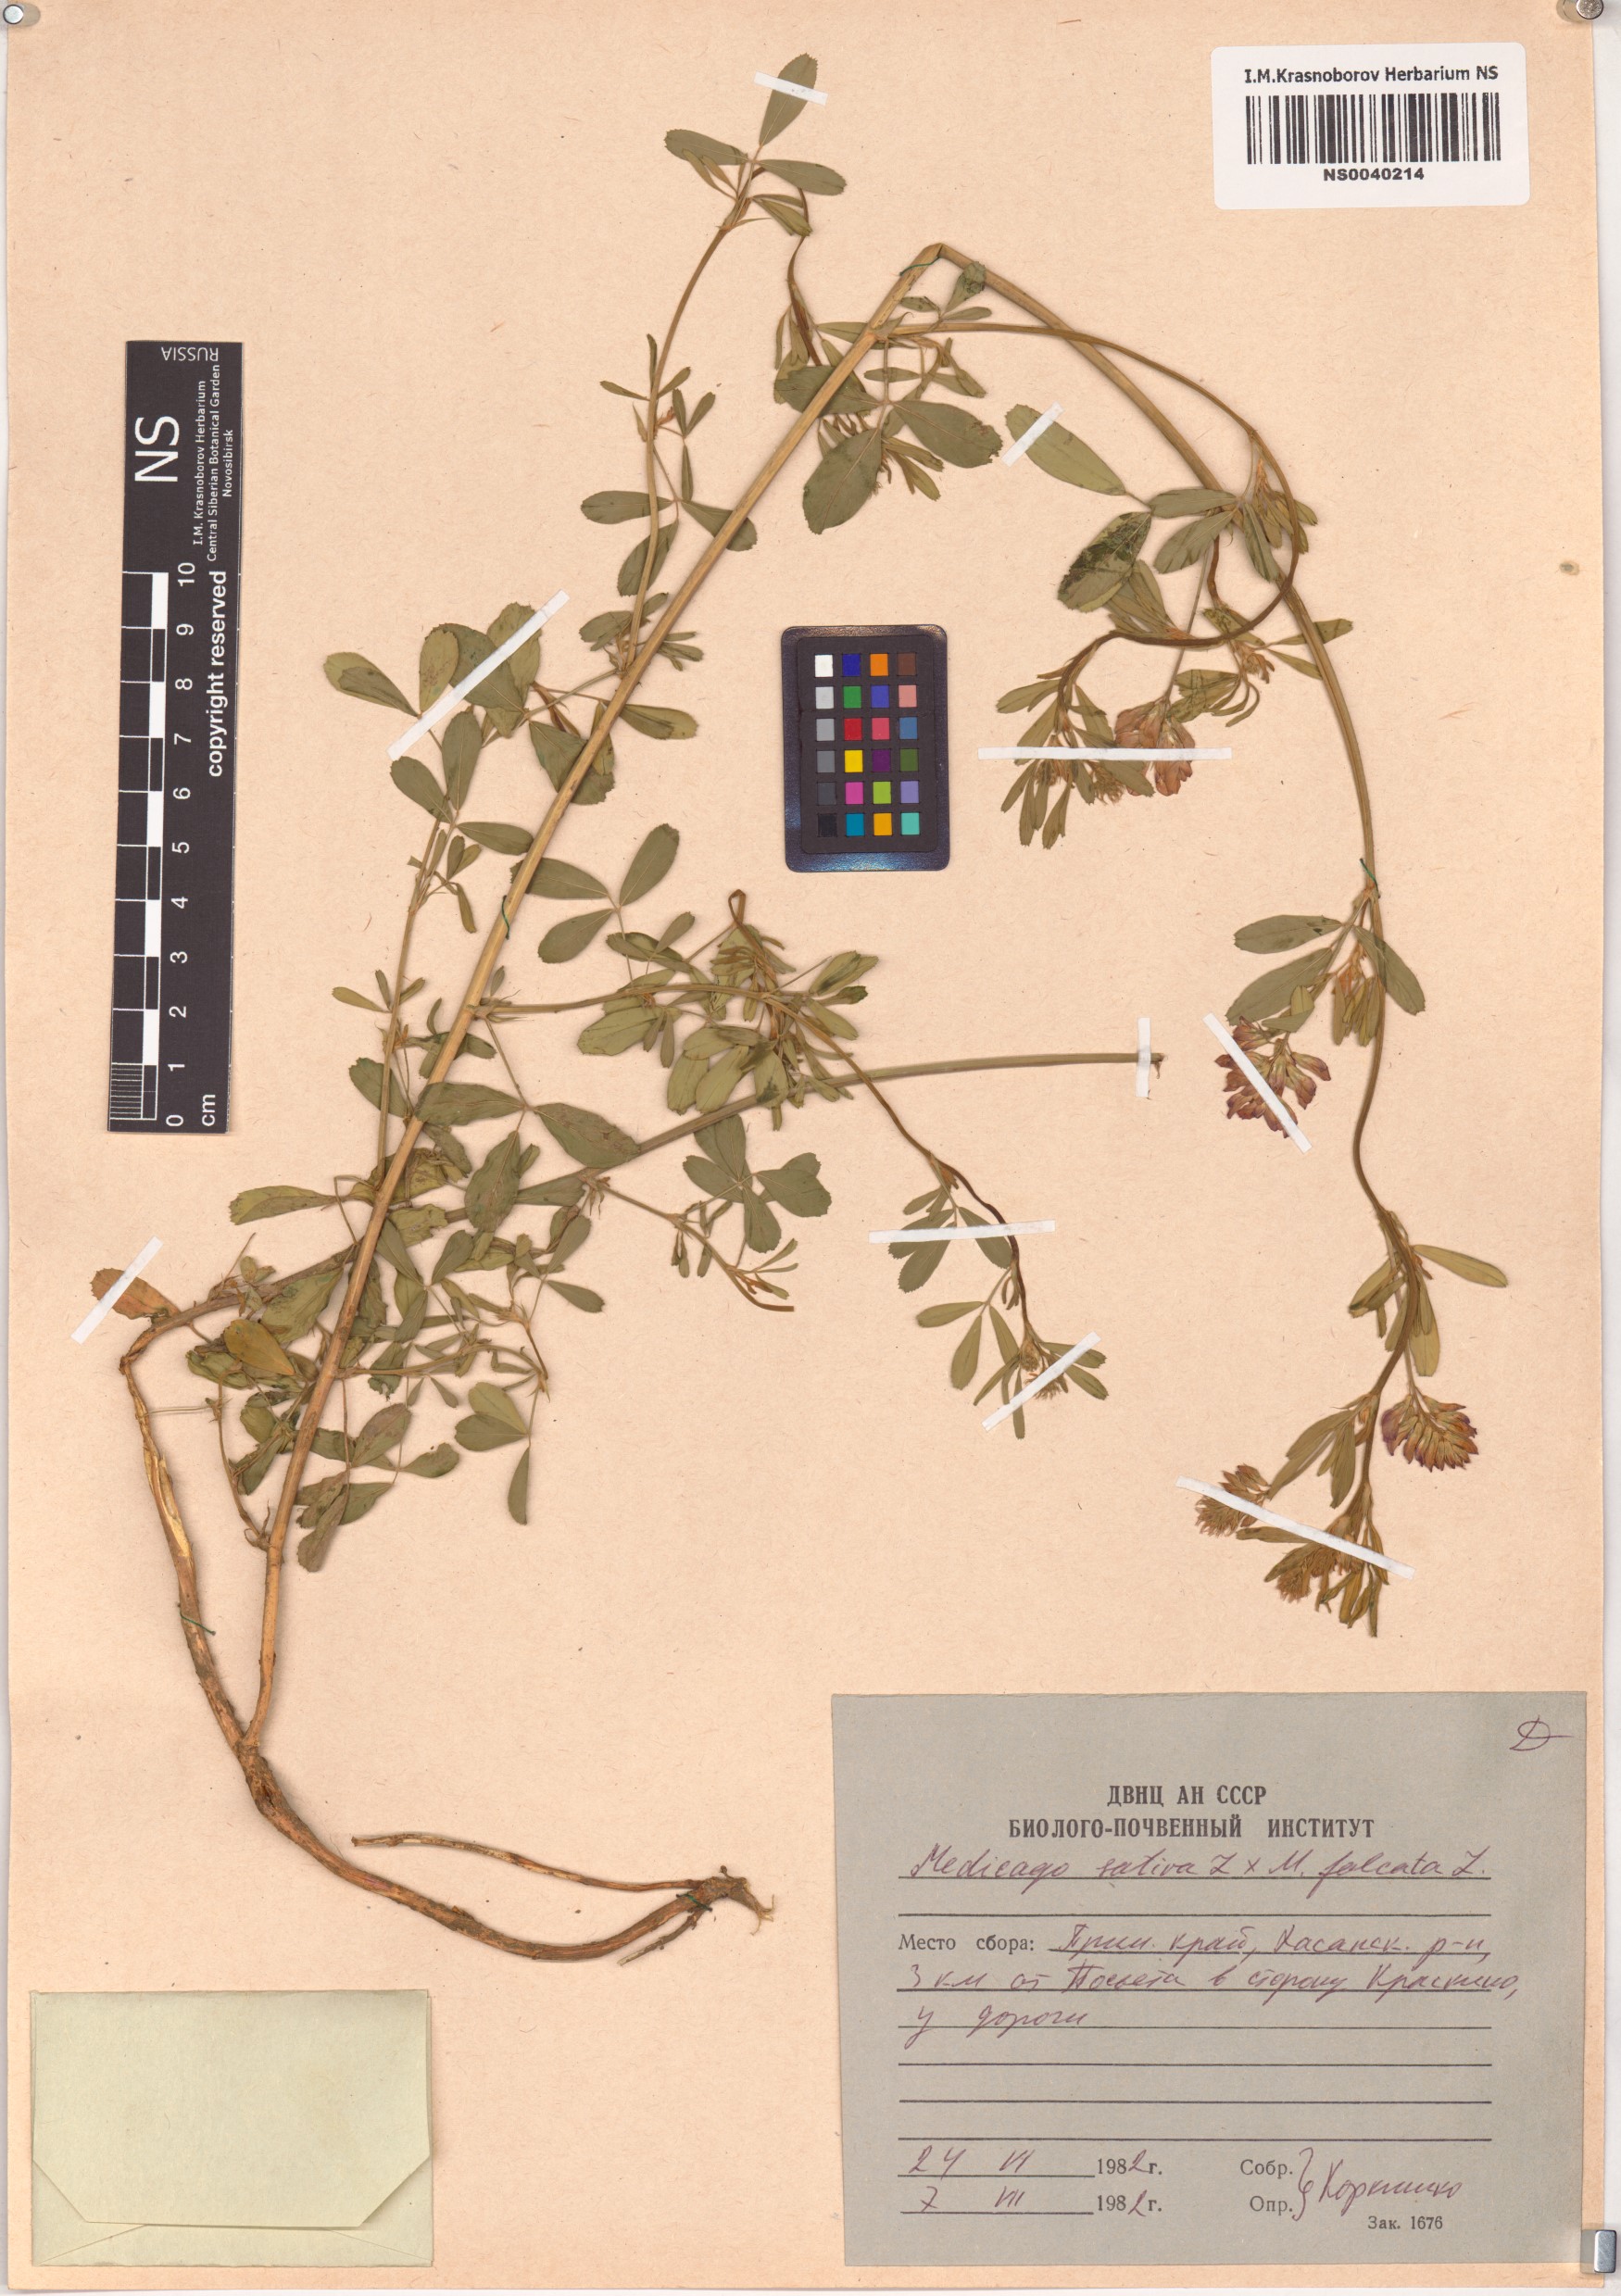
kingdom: Plantae
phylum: Tracheophyta
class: Magnoliopsida
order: Fabales
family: Fabaceae
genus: Medicago
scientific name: Medicago sativa
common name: Alfalfa
